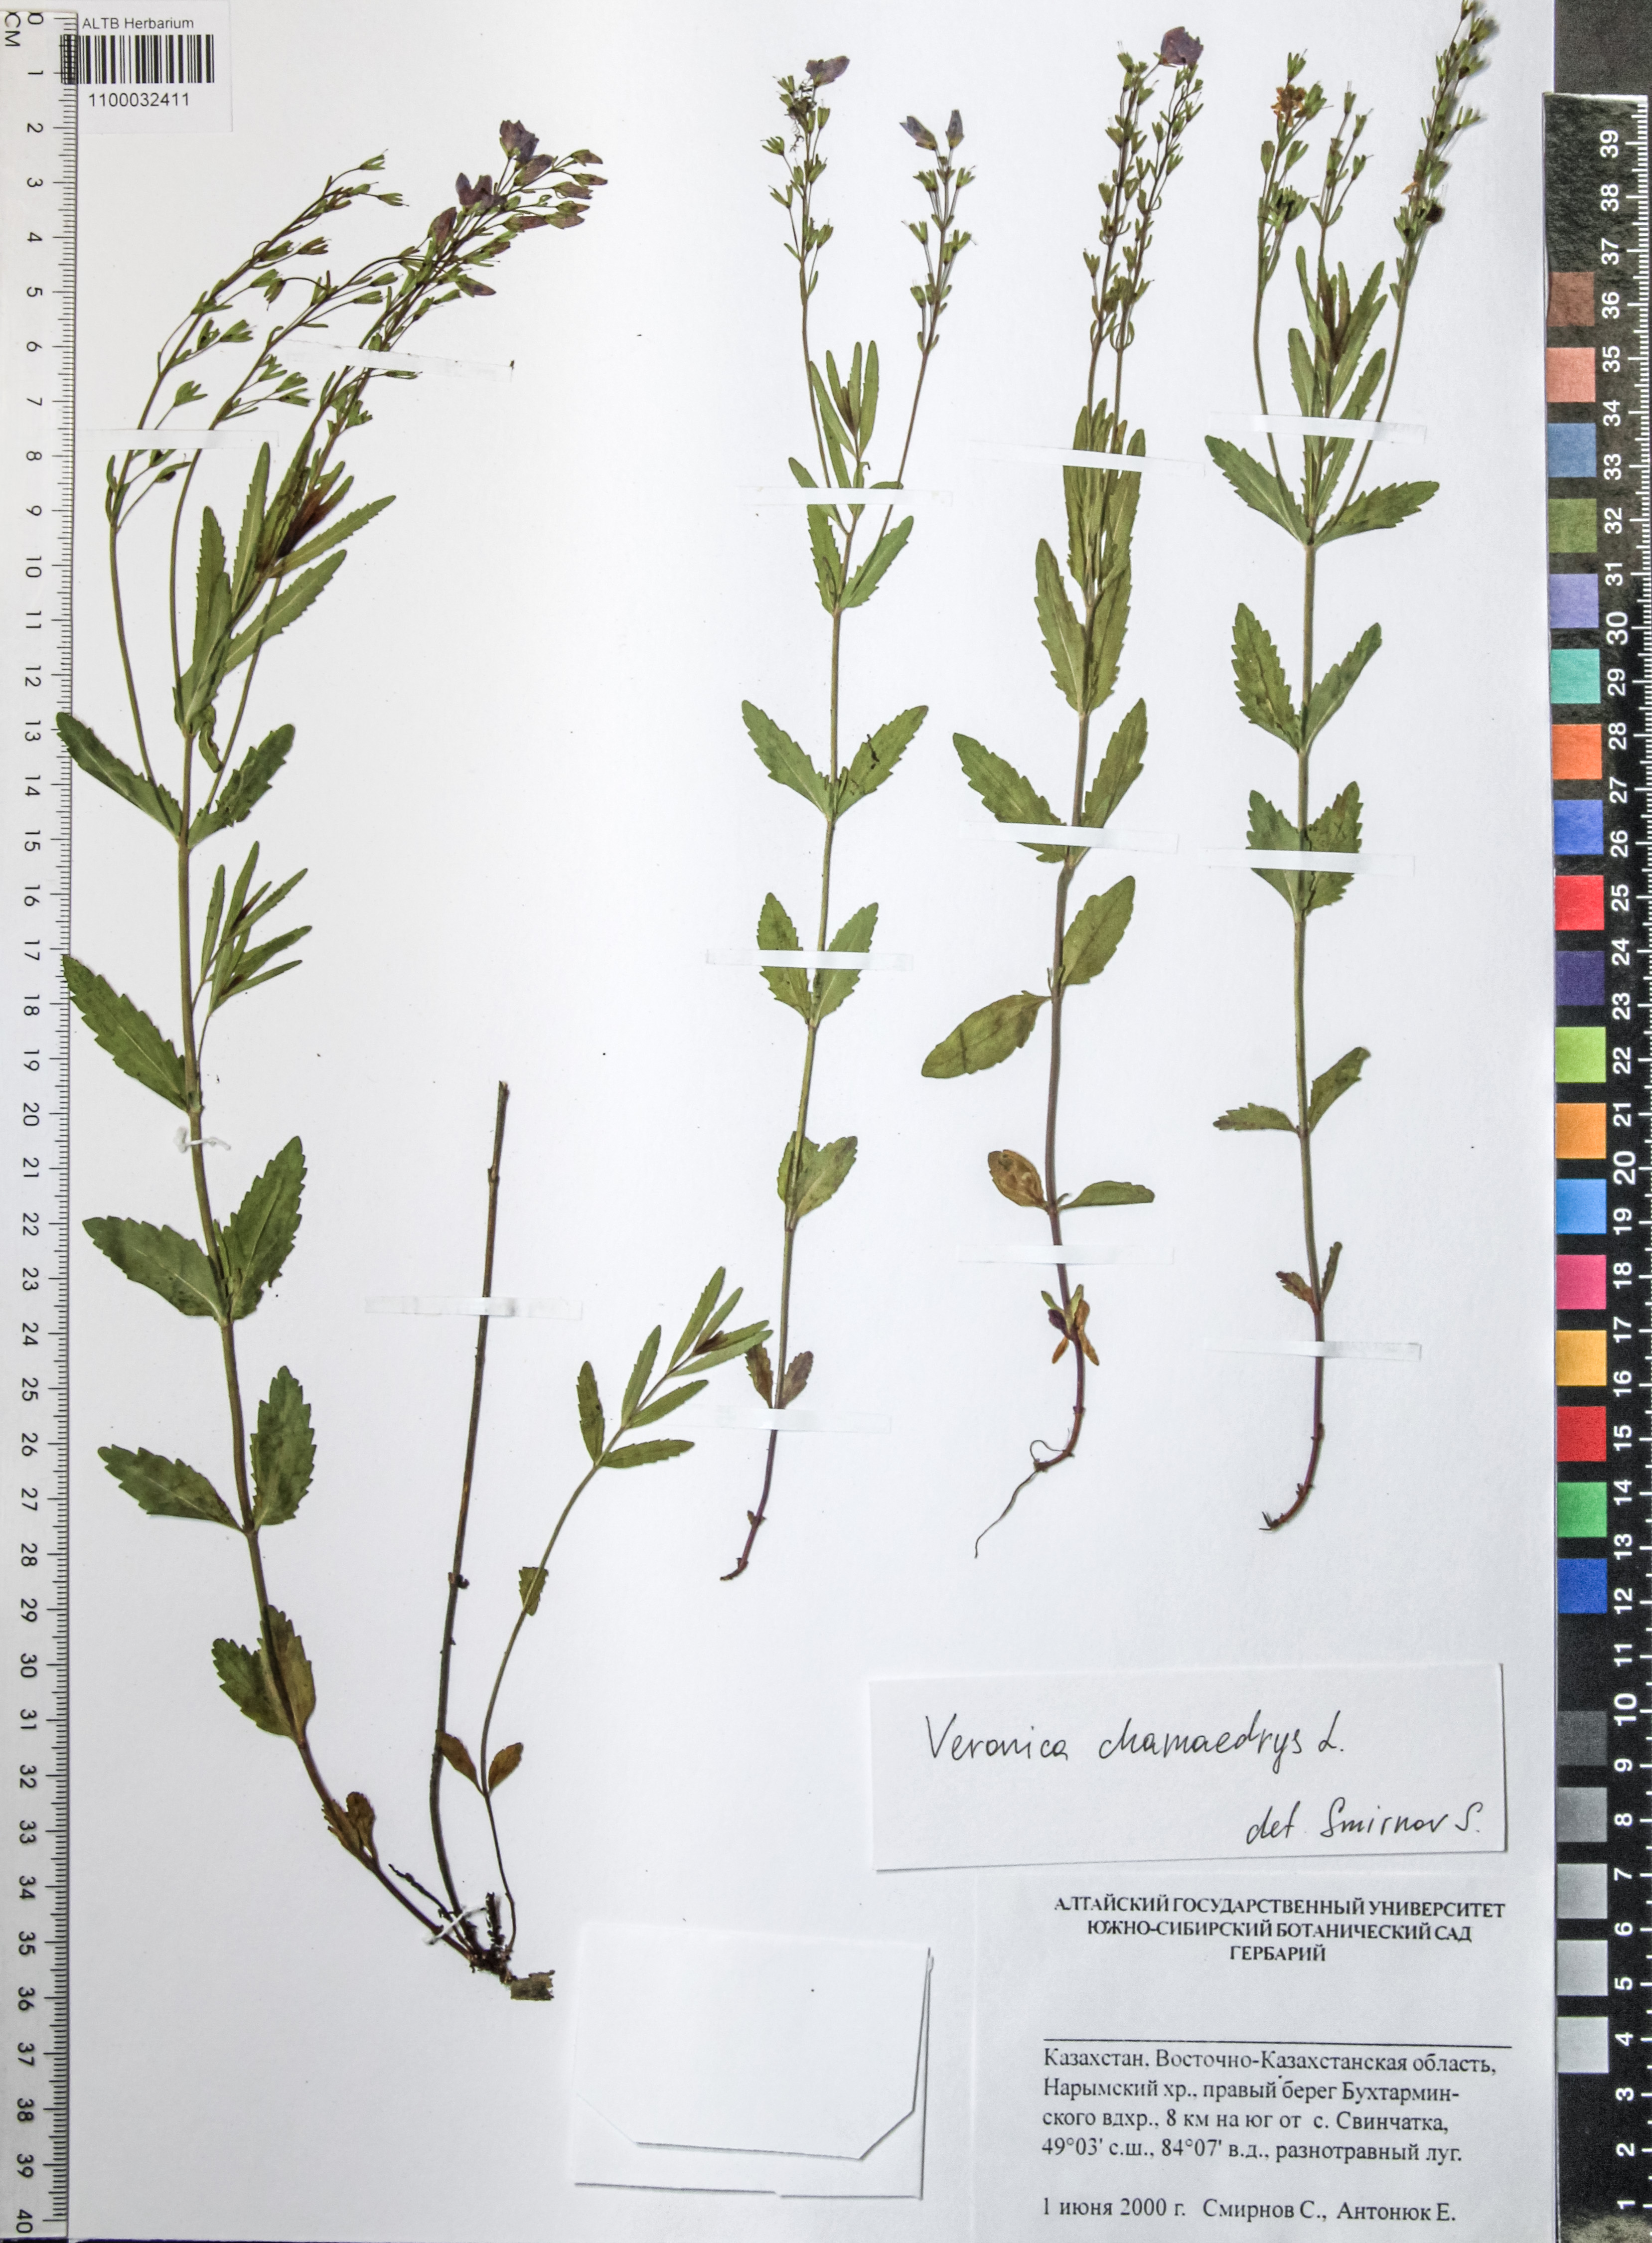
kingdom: Plantae
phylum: Tracheophyta
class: Magnoliopsida
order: Lamiales
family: Plantaginaceae
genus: Veronica
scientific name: Veronica chamaedrys
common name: Germander speedwell
